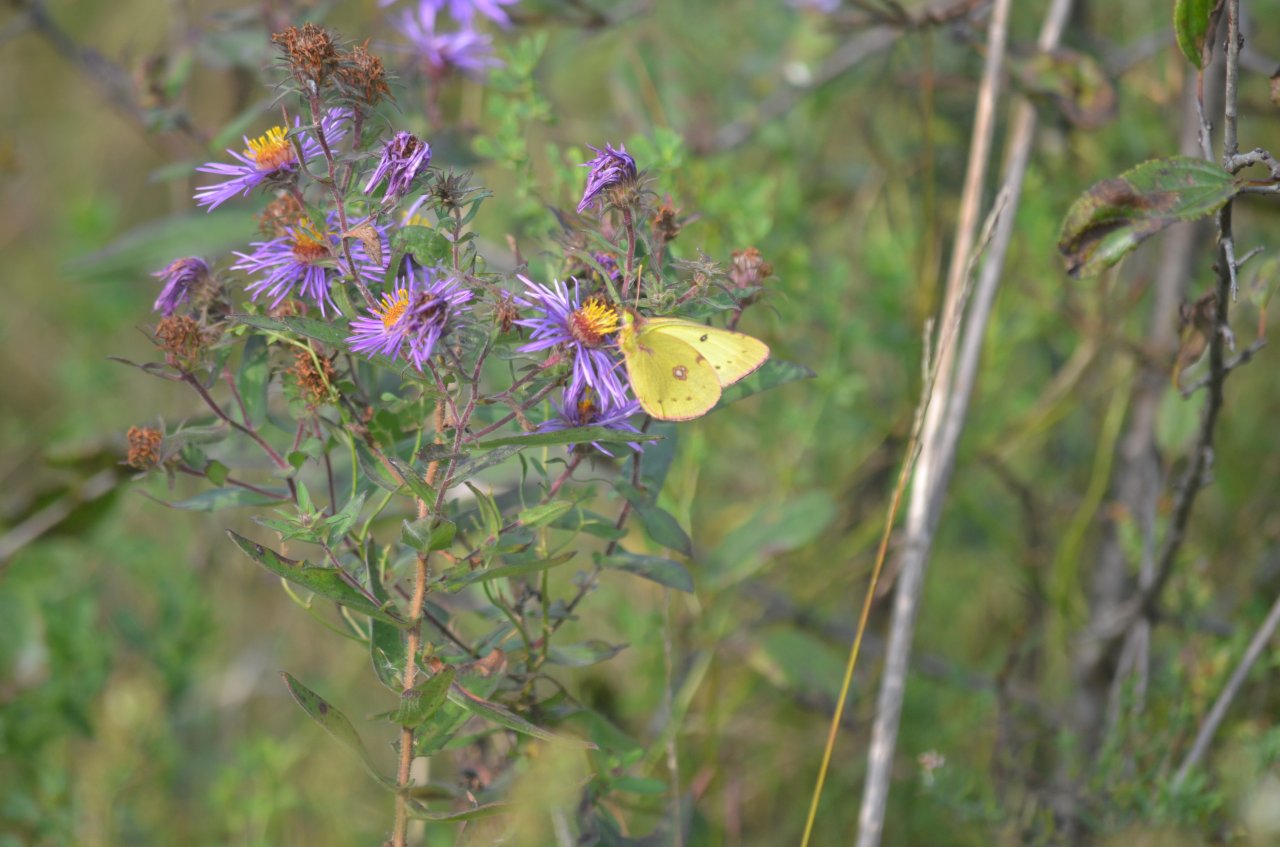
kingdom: Animalia
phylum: Arthropoda
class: Insecta
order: Lepidoptera
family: Pieridae
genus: Colias
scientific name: Colias philodice
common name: Clouded Sulphur
